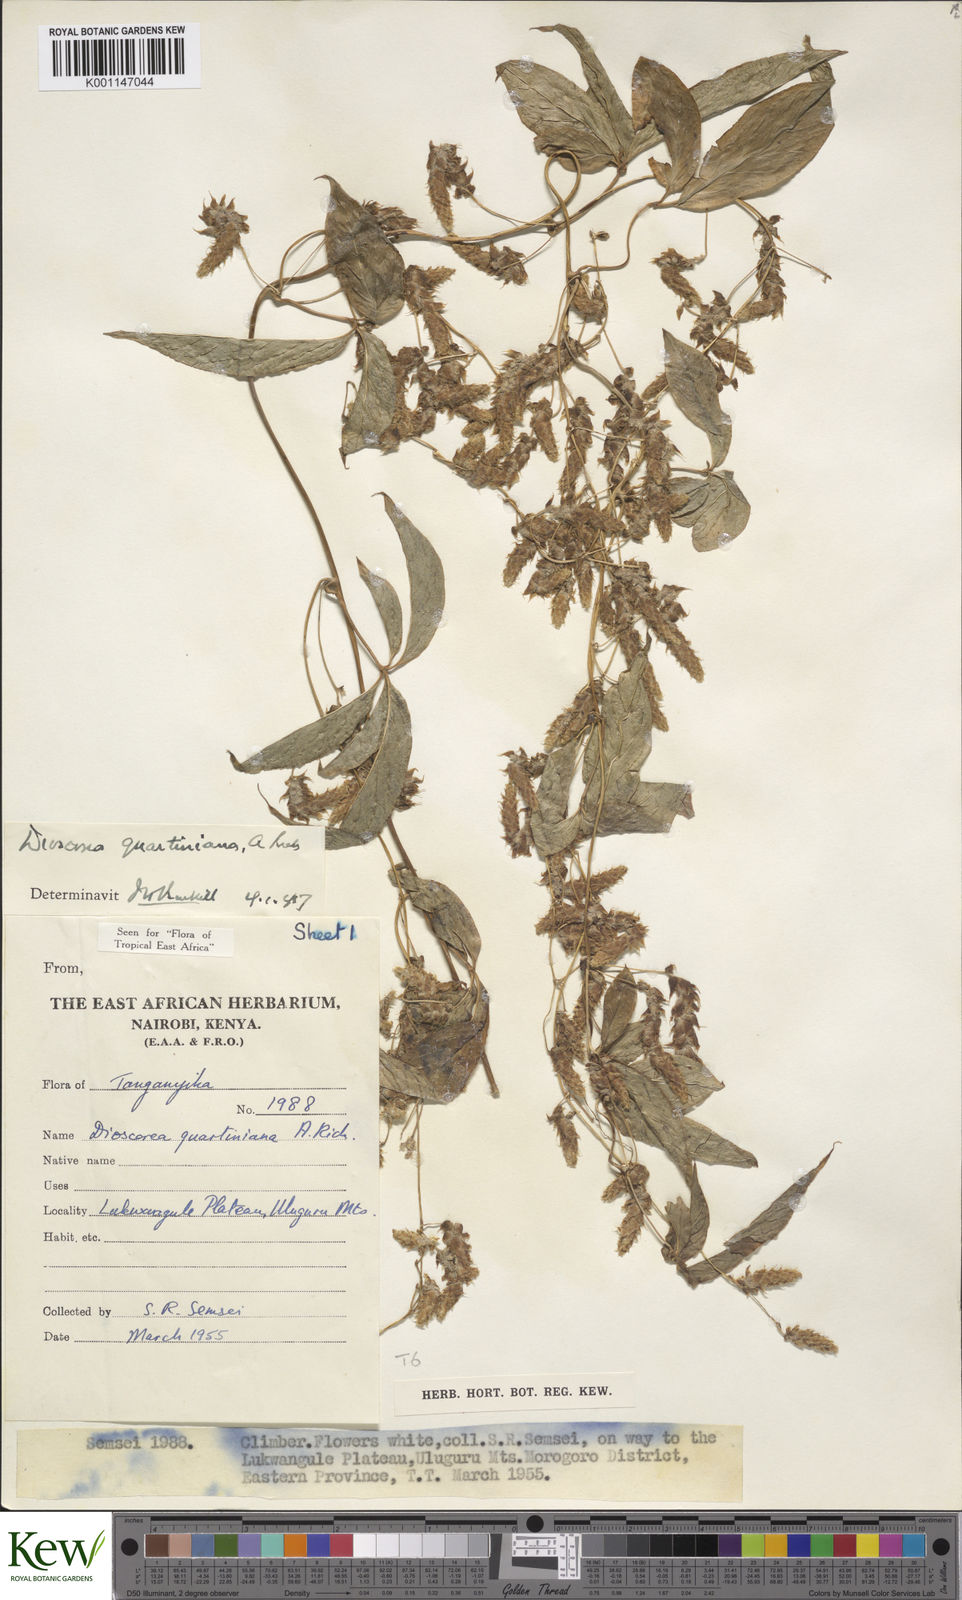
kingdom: Plantae
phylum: Tracheophyta
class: Liliopsida
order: Dioscoreales
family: Dioscoreaceae
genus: Dioscorea
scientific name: Dioscorea quartiniana
